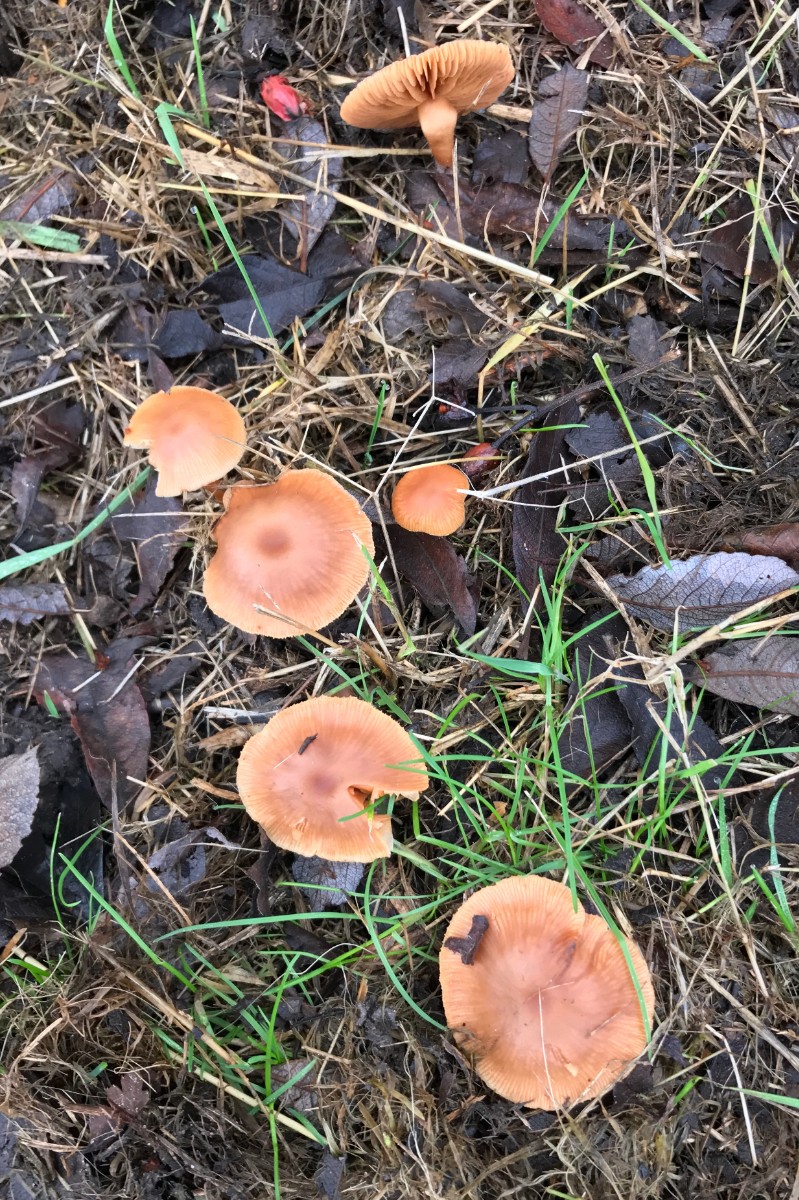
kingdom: Fungi
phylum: Basidiomycota
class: Agaricomycetes
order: Agaricales
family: Tubariaceae
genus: Tubaria
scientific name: Tubaria furfuracea
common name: kliddet fnughat
